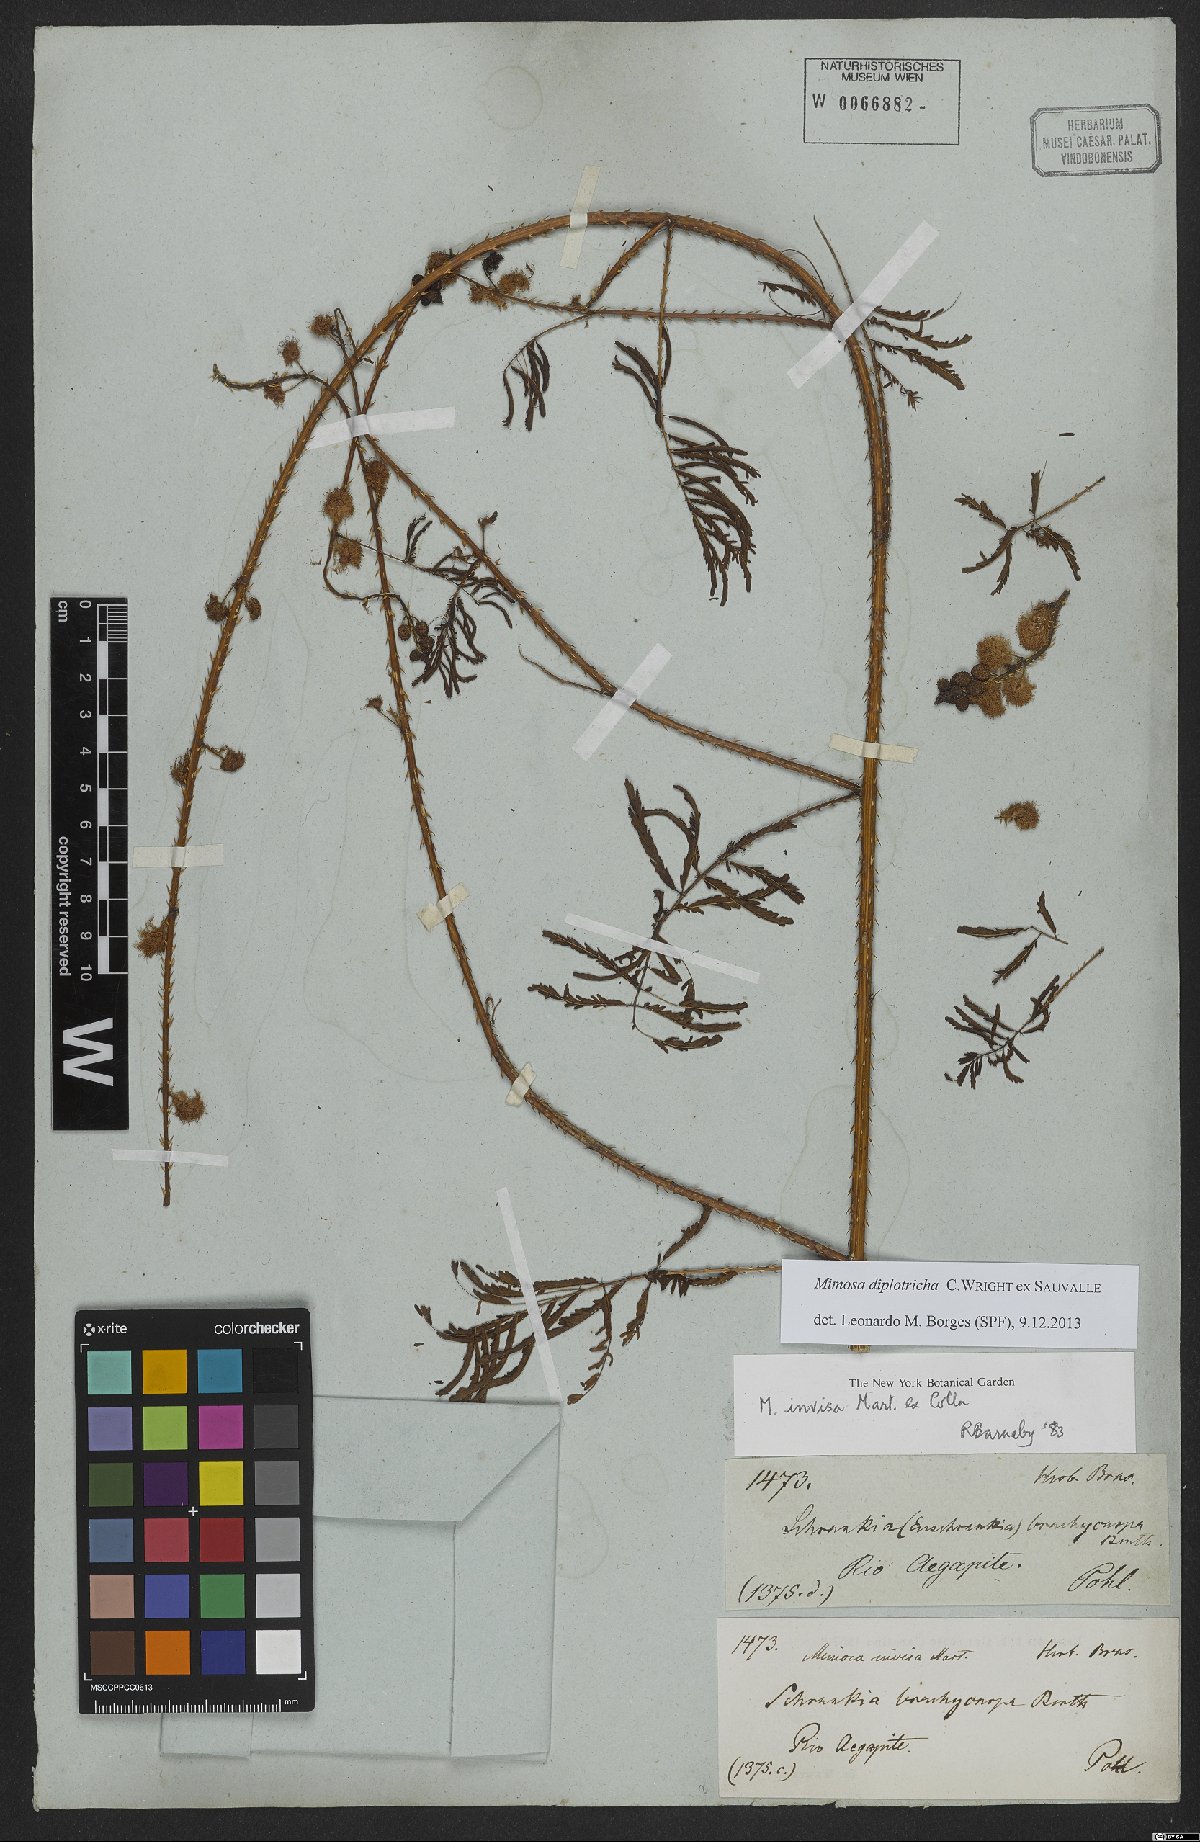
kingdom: Plantae
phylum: Tracheophyta
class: Magnoliopsida
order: Fabales
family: Fabaceae
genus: Mimosa
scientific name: Mimosa diplotricha
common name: Giant sensitive-plant
